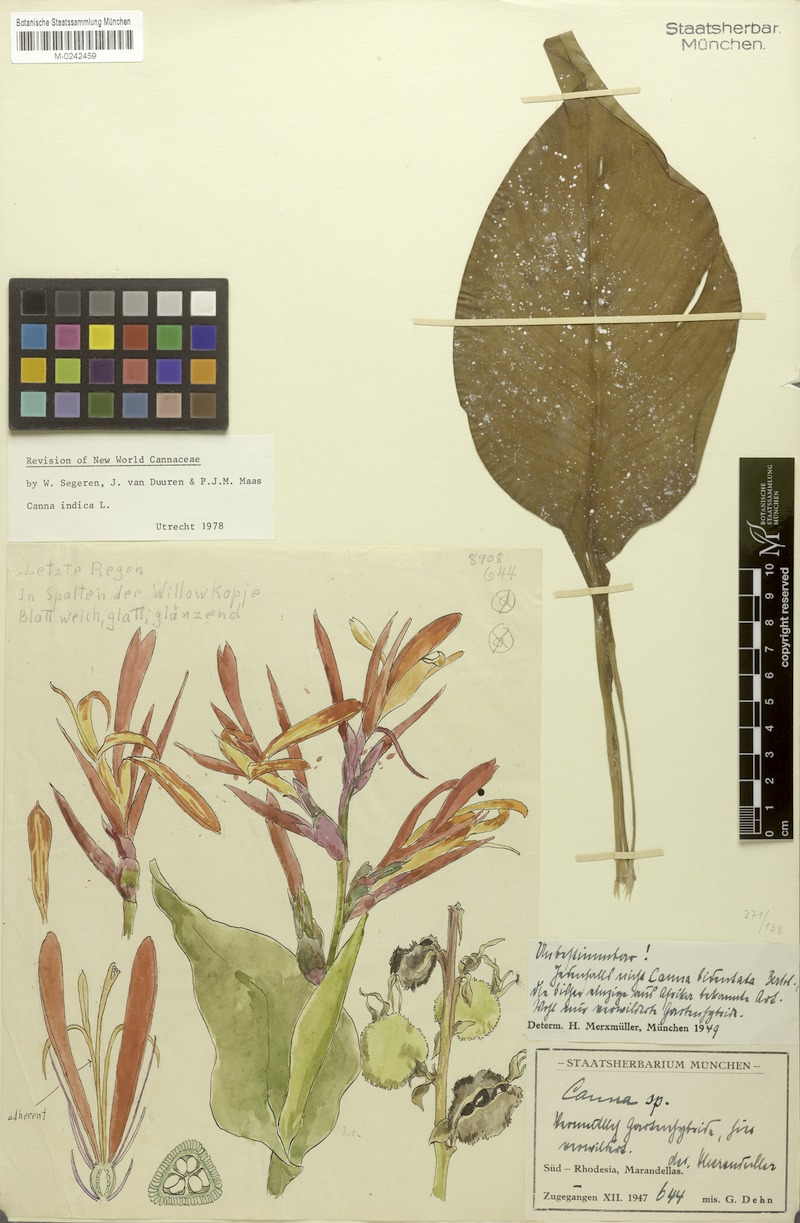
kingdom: Plantae
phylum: Tracheophyta
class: Liliopsida
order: Zingiberales
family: Cannaceae
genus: Canna
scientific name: Canna indica
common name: Indian shot
